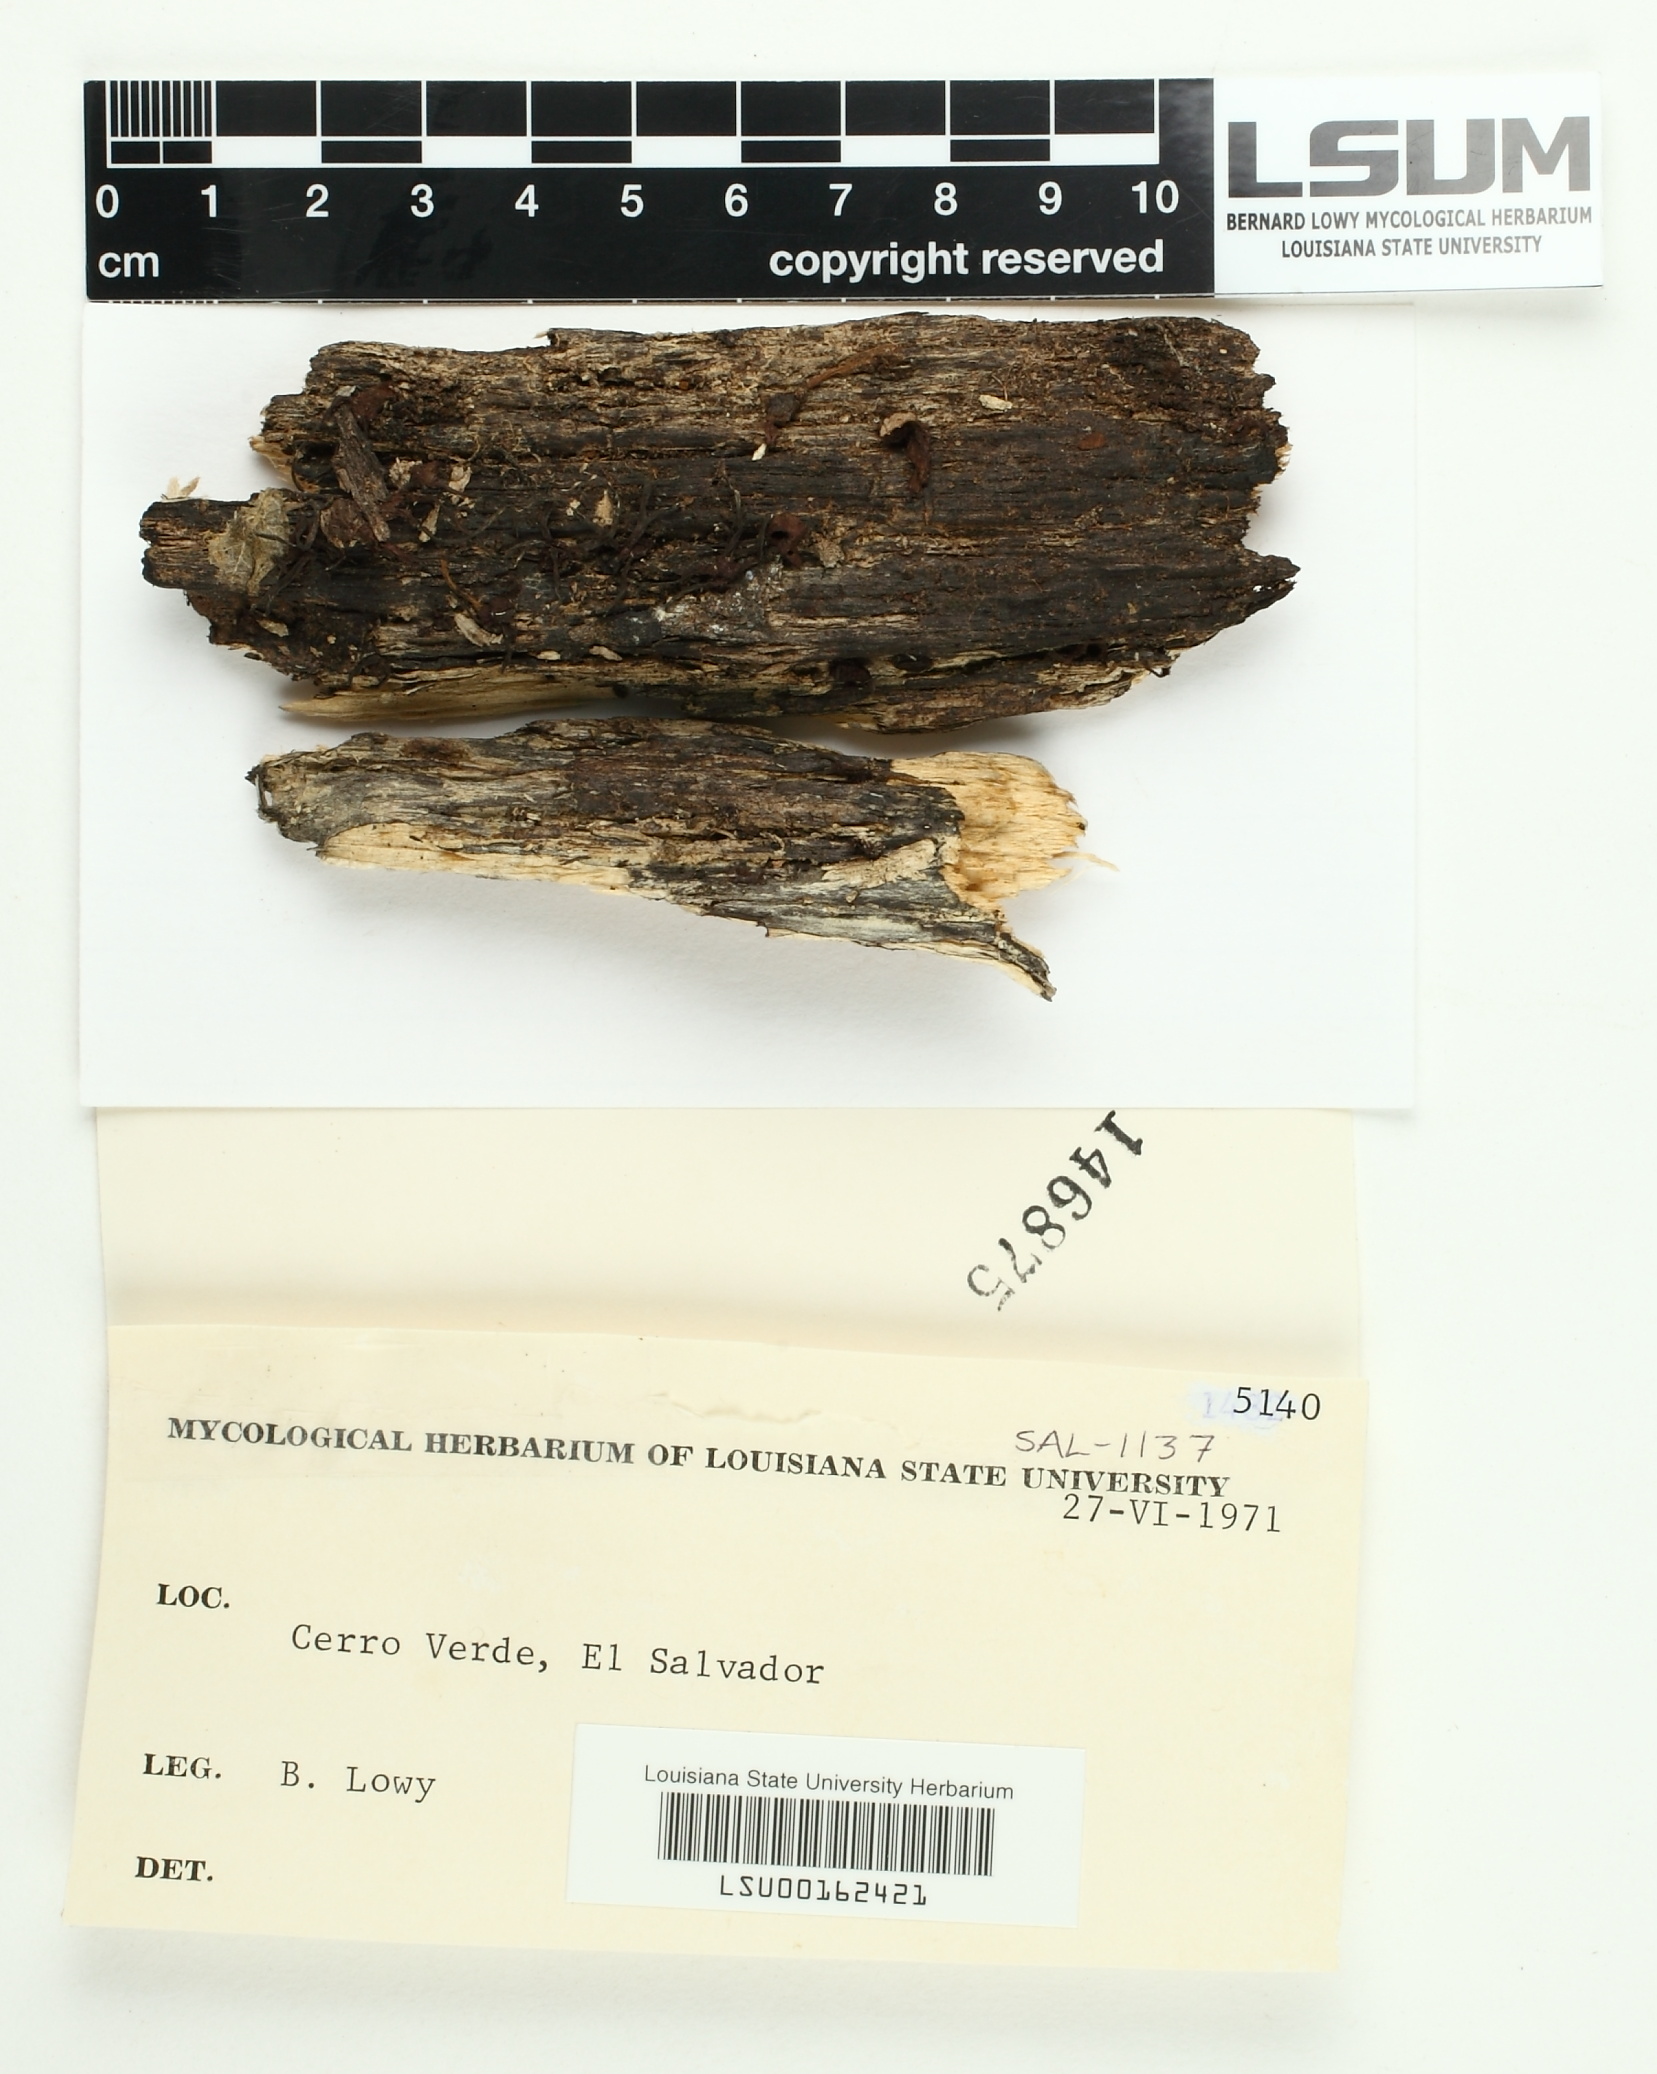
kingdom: Fungi
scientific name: Fungi
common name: Fungi
